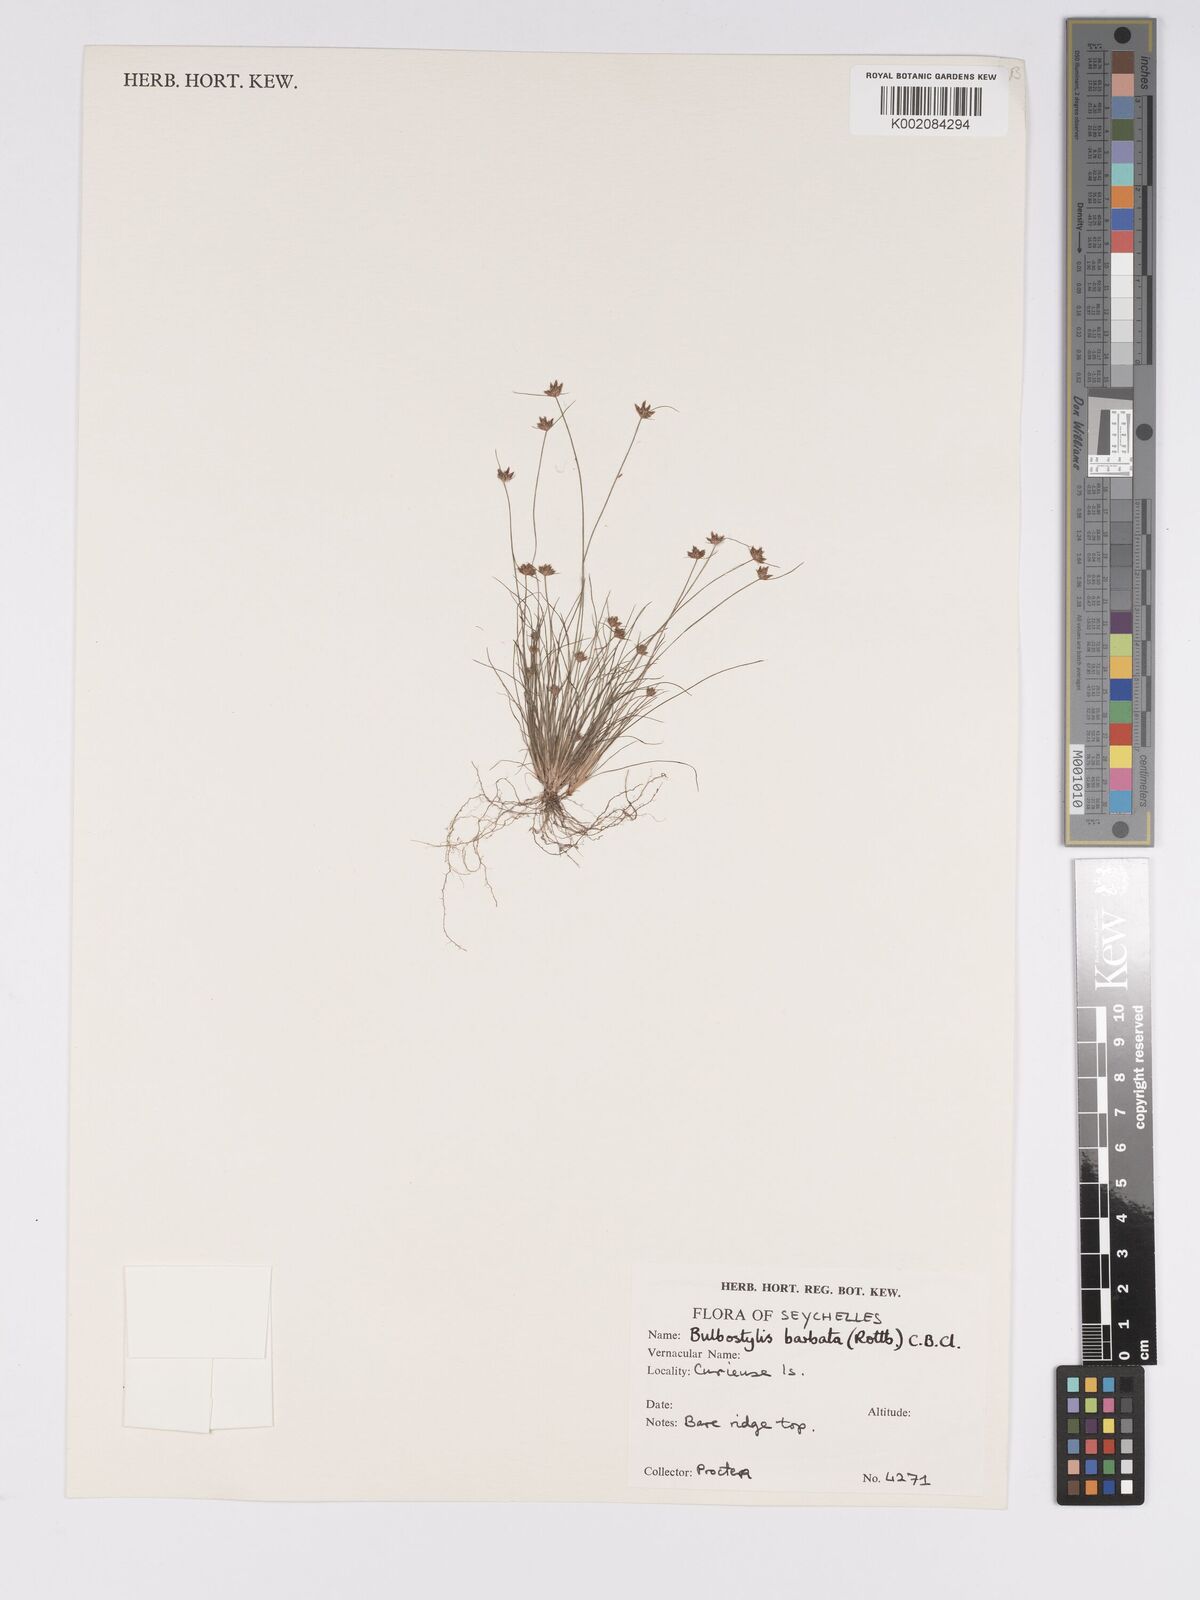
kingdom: Plantae
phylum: Tracheophyta
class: Liliopsida
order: Poales
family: Cyperaceae
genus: Bulbostylis
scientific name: Bulbostylis barbata
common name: Watergrass
